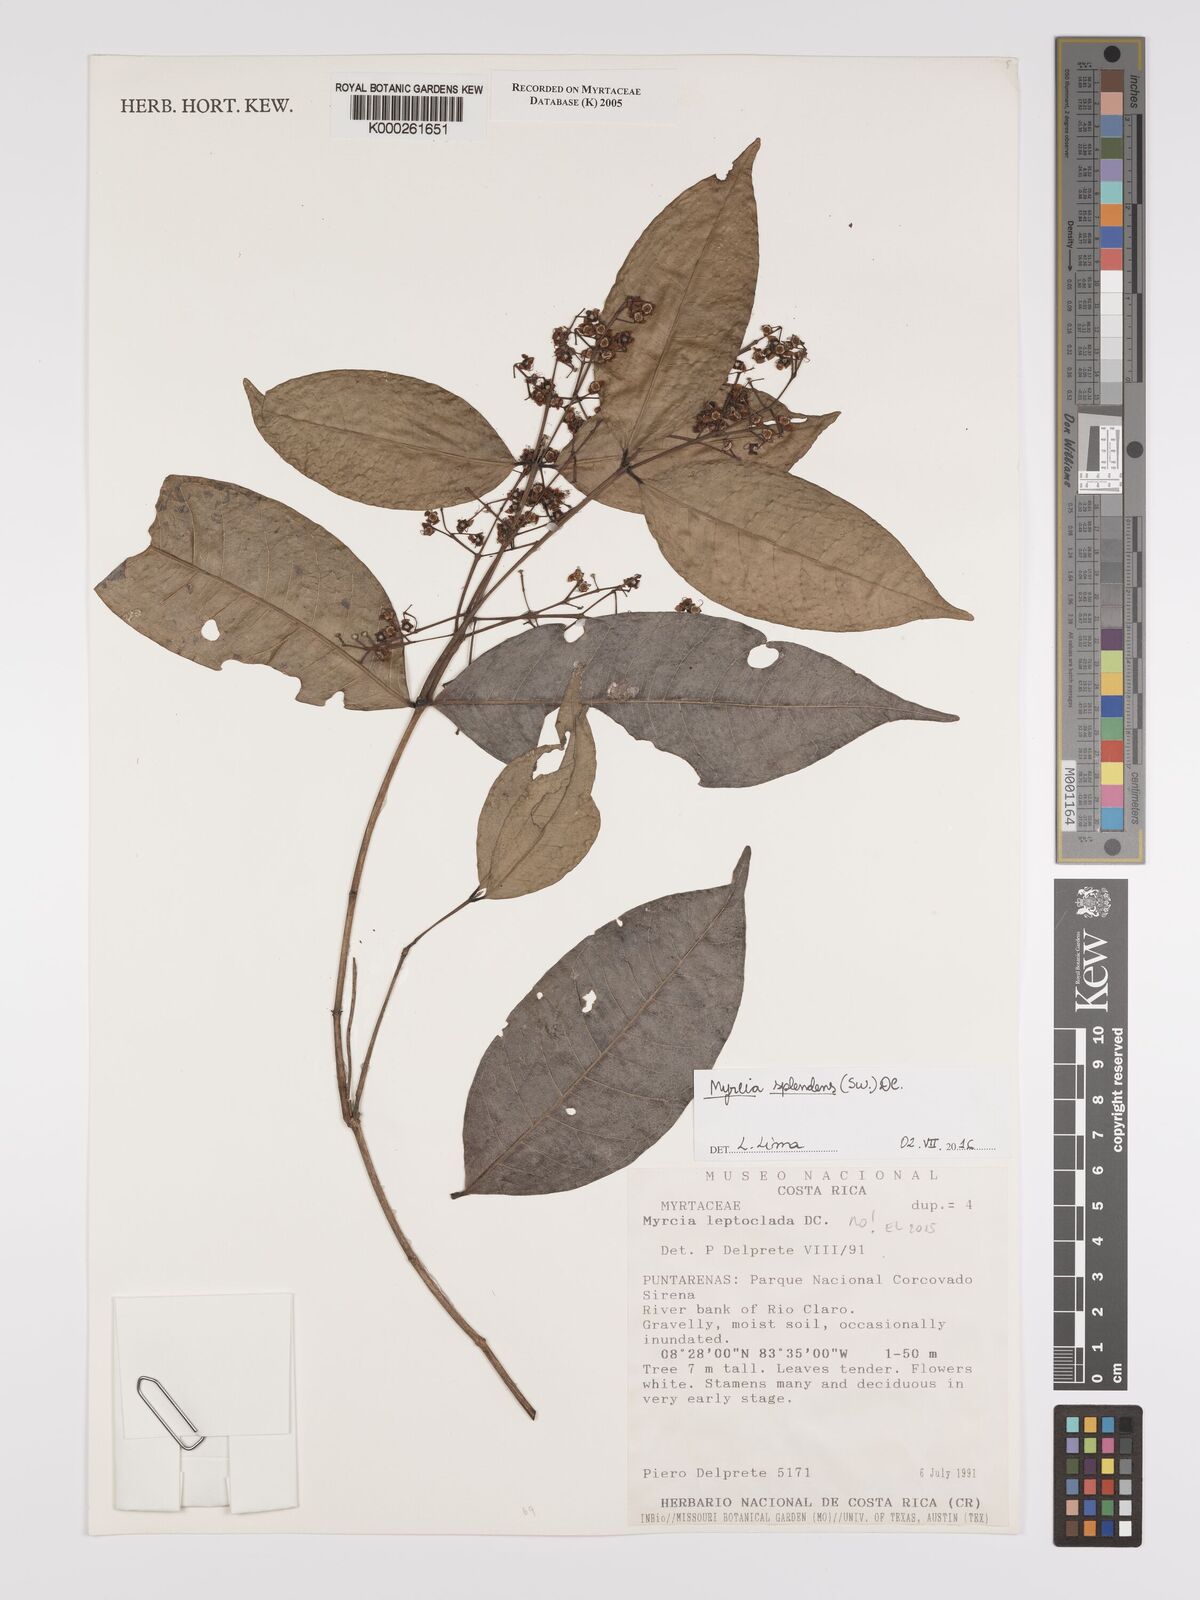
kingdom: Plantae
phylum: Tracheophyta
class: Magnoliopsida
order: Myrtales
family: Myrtaceae
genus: Myrcia
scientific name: Myrcia amazonica
